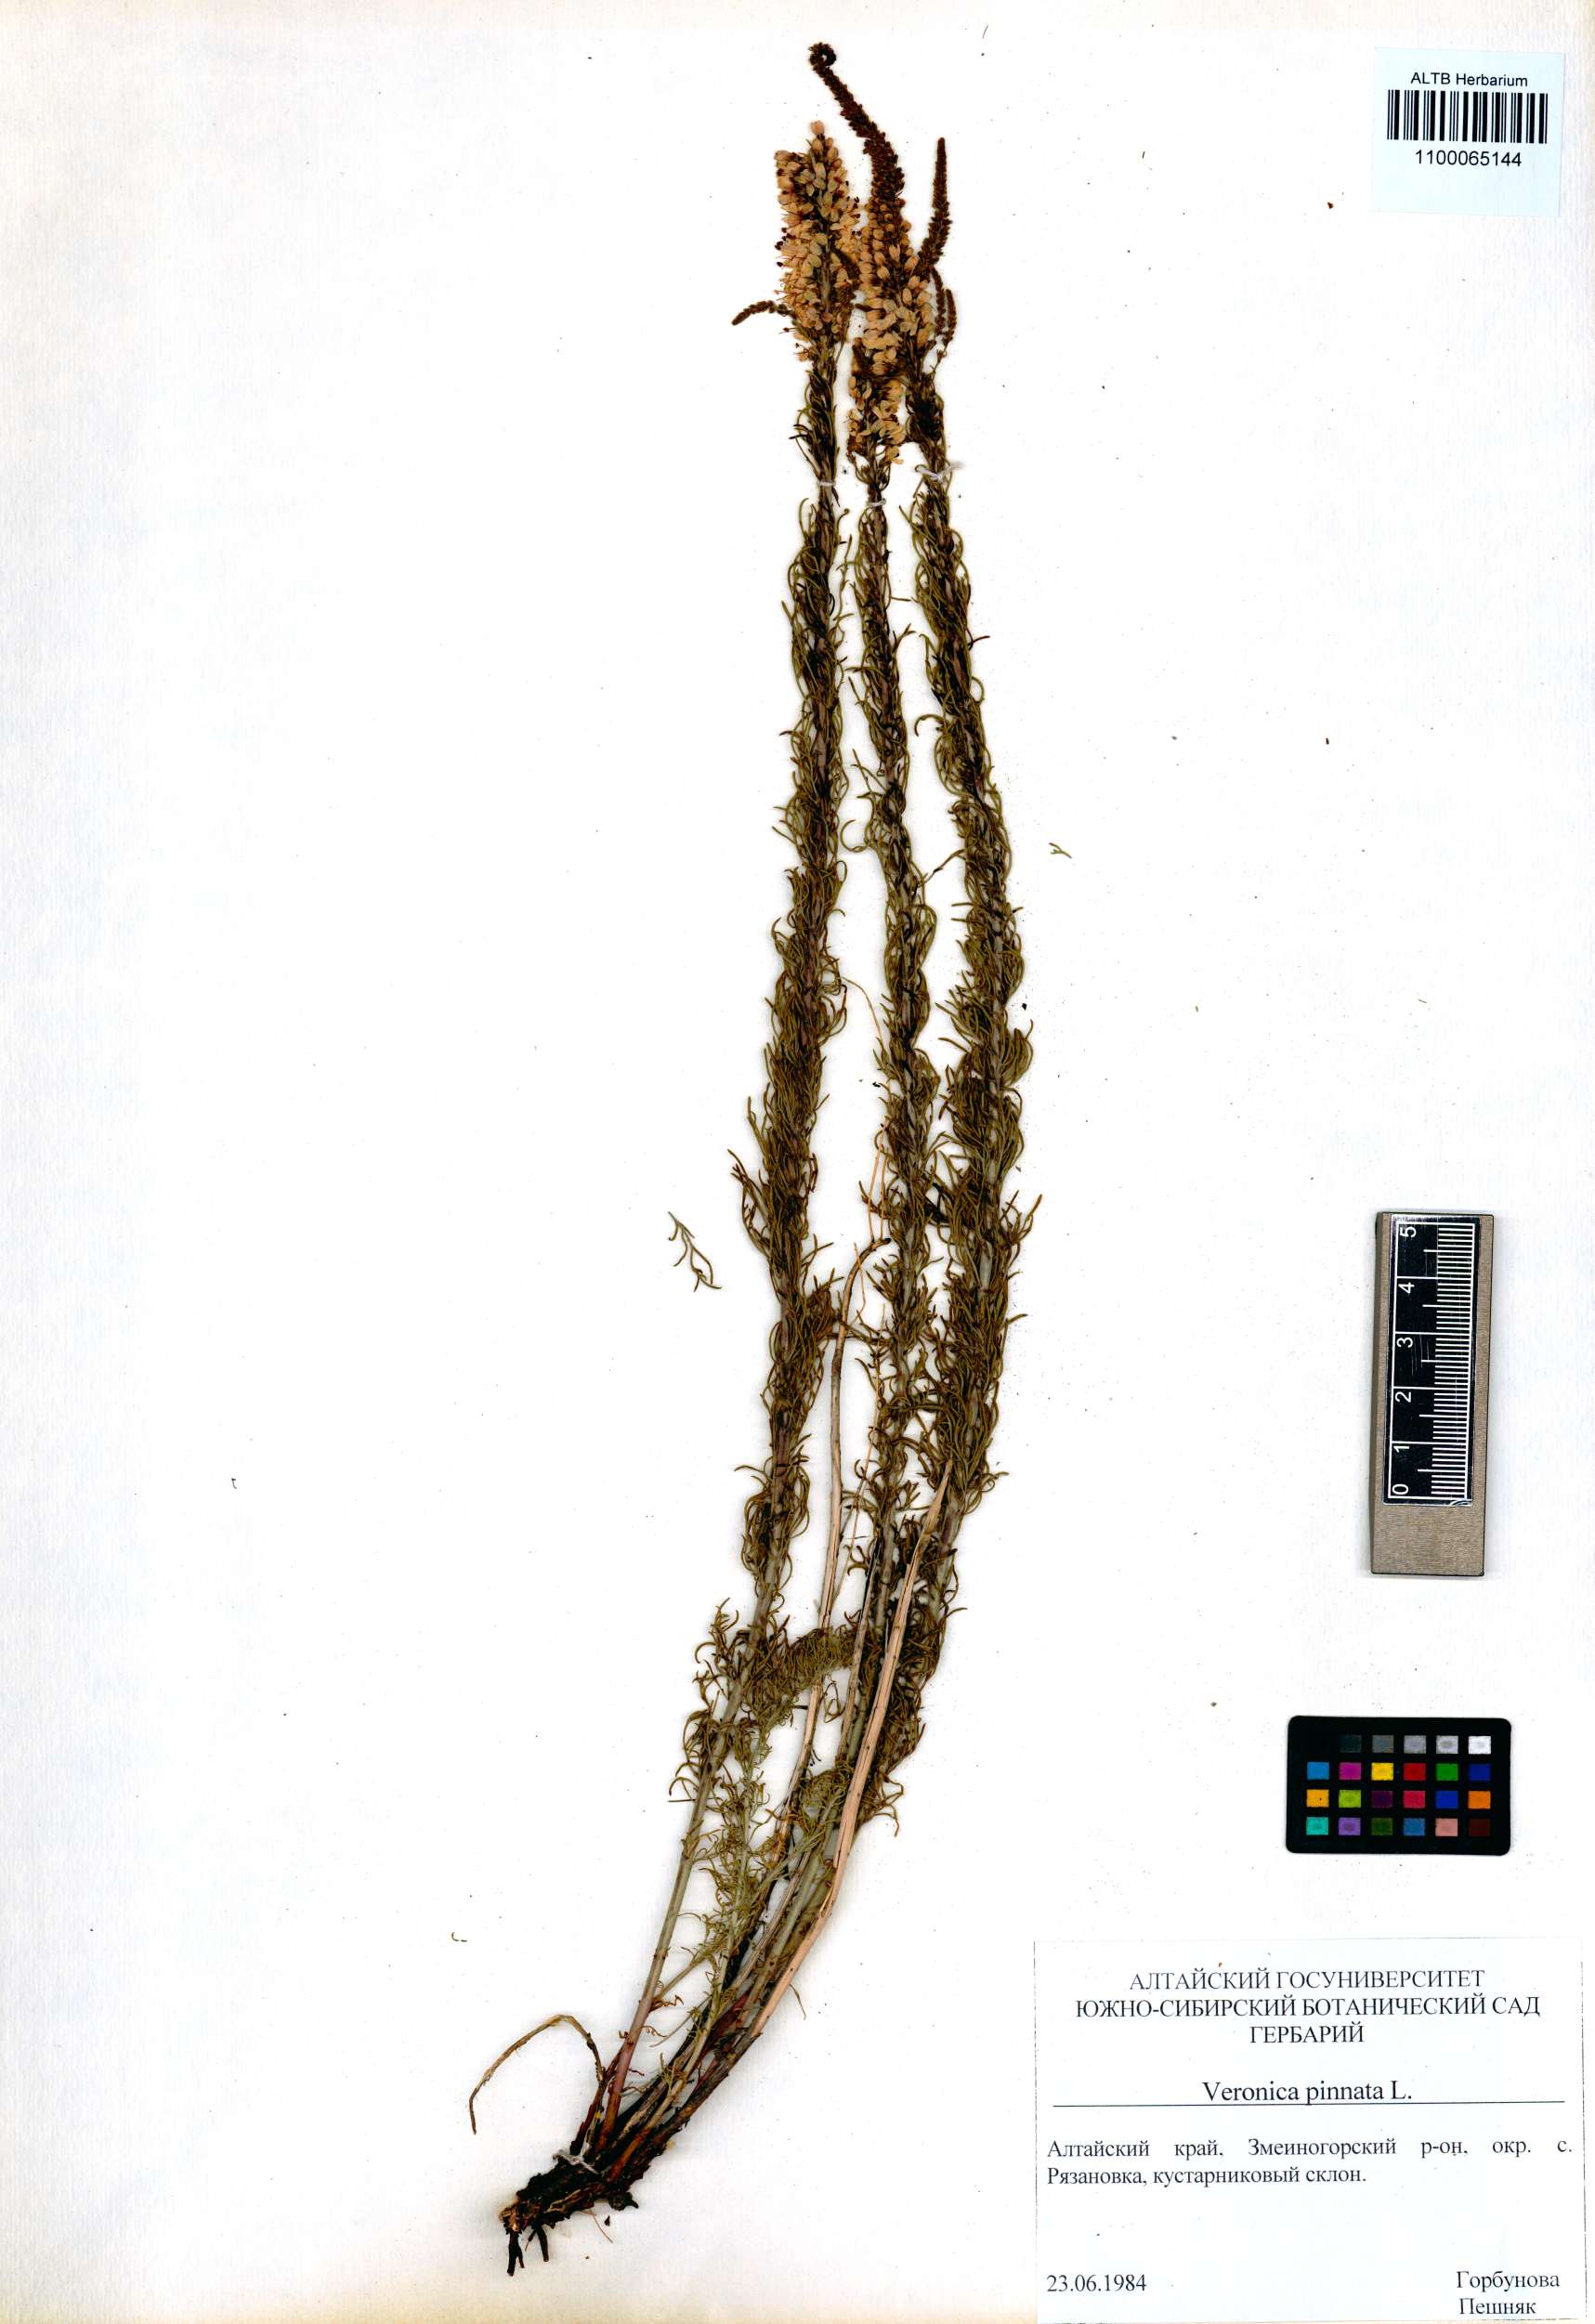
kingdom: Plantae
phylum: Tracheophyta
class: Magnoliopsida
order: Lamiales
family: Plantaginaceae
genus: Veronica
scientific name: Veronica pinnata
